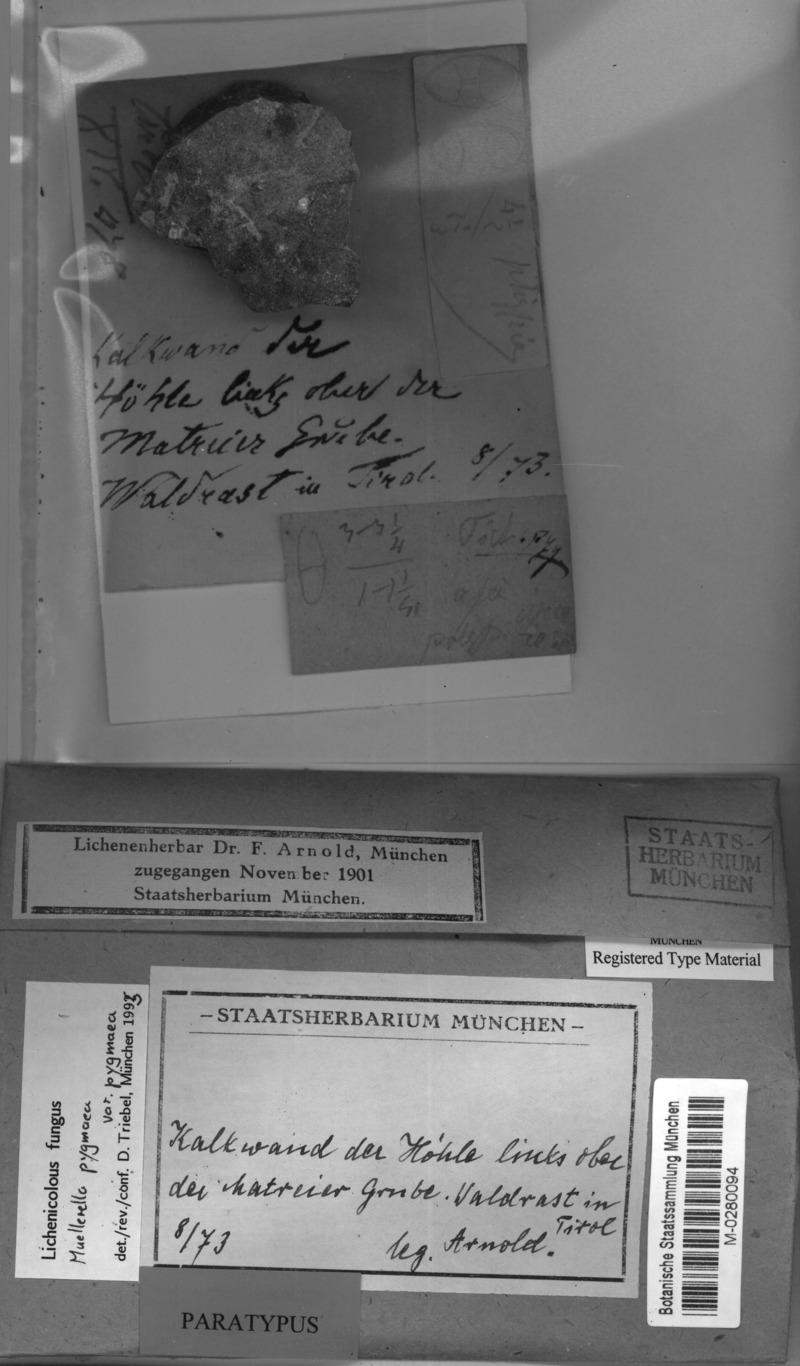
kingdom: Fungi
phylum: Ascomycota
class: Lecanoromycetes
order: Teloschistales
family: Teloschistaceae
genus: Leproplaca
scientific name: Leproplaca proteus
